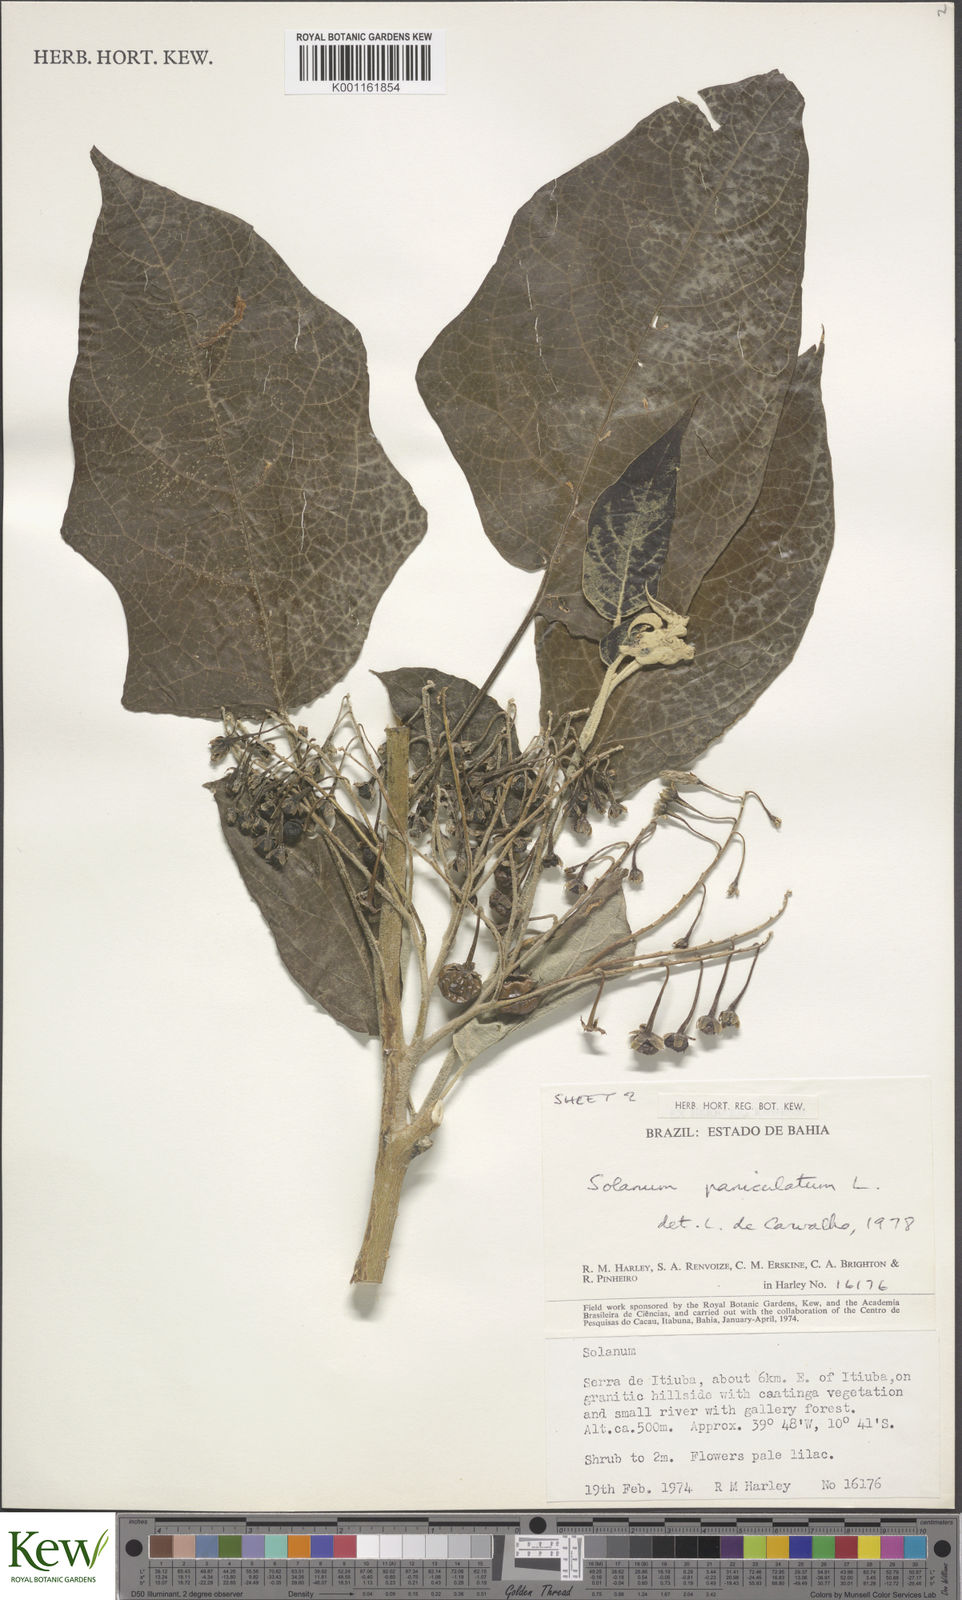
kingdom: Plantae
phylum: Tracheophyta
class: Magnoliopsida
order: Solanales
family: Solanaceae
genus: Solanum
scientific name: Solanum paniculatum
